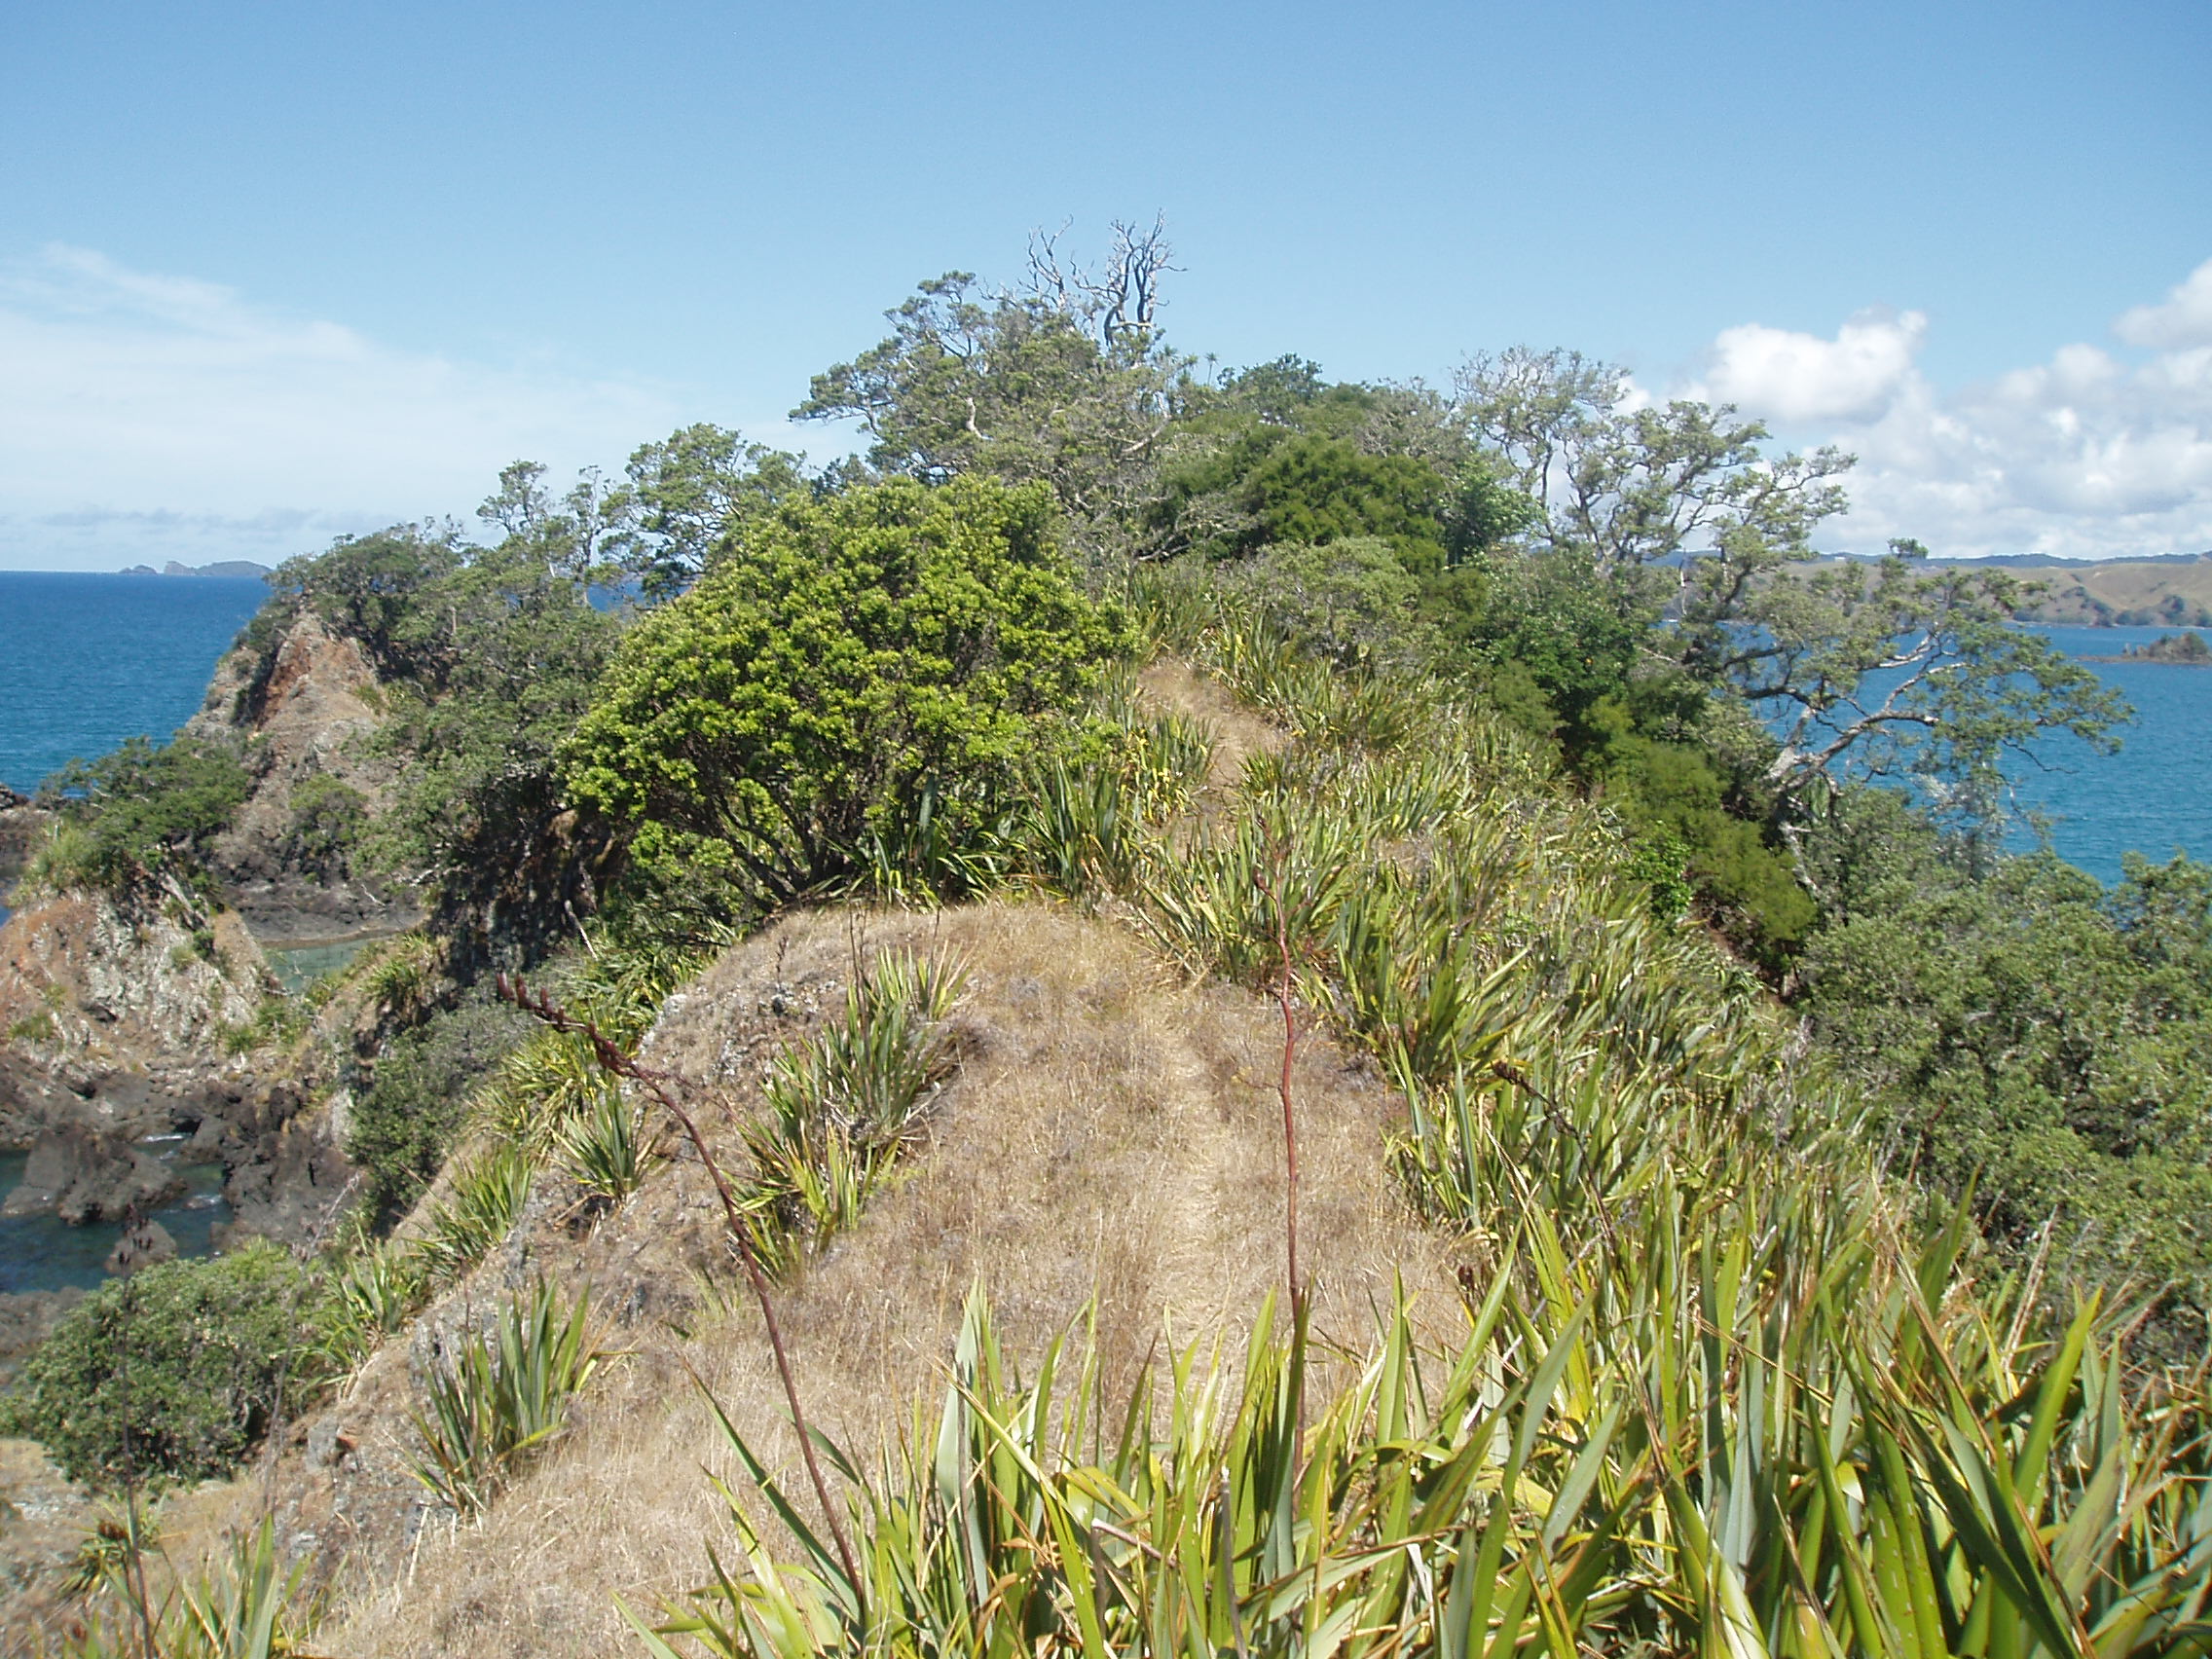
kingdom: Plantae
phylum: Tracheophyta
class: Magnoliopsida
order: Fabales
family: Fabaceae
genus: Sophora
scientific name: Sophora chathamica
